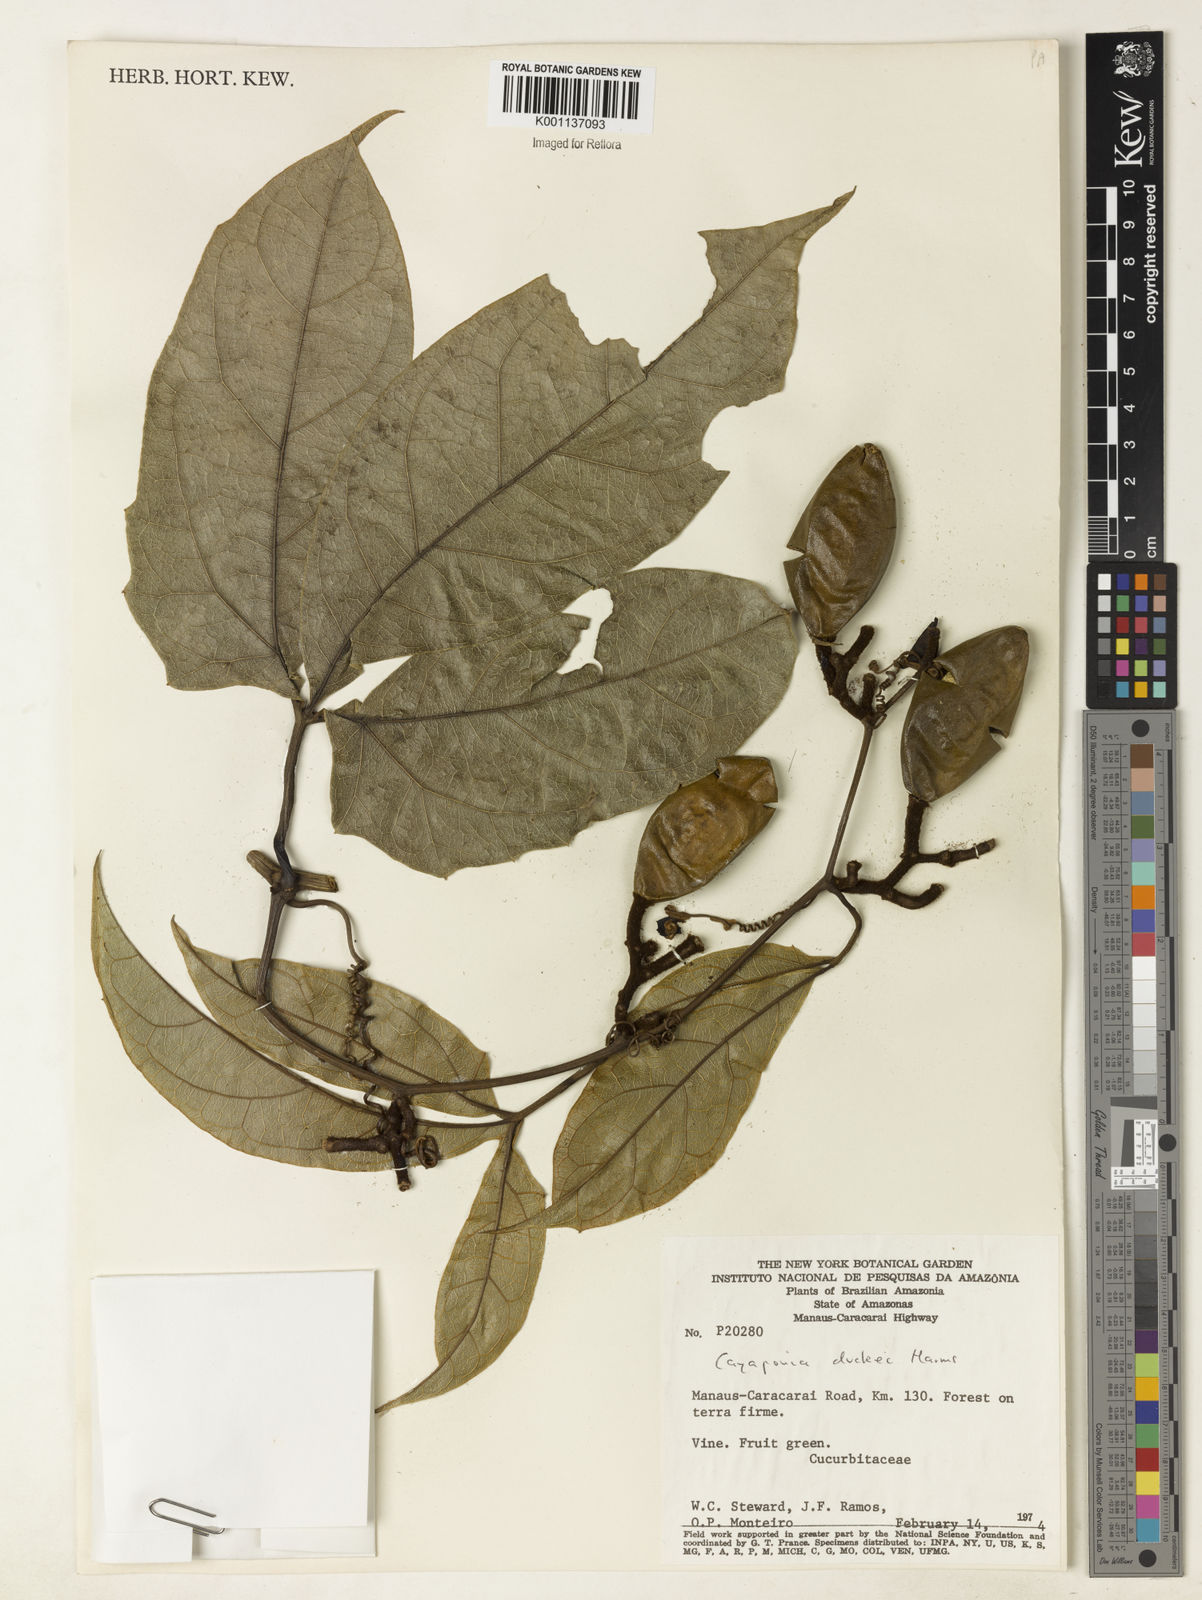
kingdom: Plantae
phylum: Tracheophyta
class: Magnoliopsida
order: Cucurbitales
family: Cucurbitaceae
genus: Cayaponia
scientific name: Cayaponia duckei
